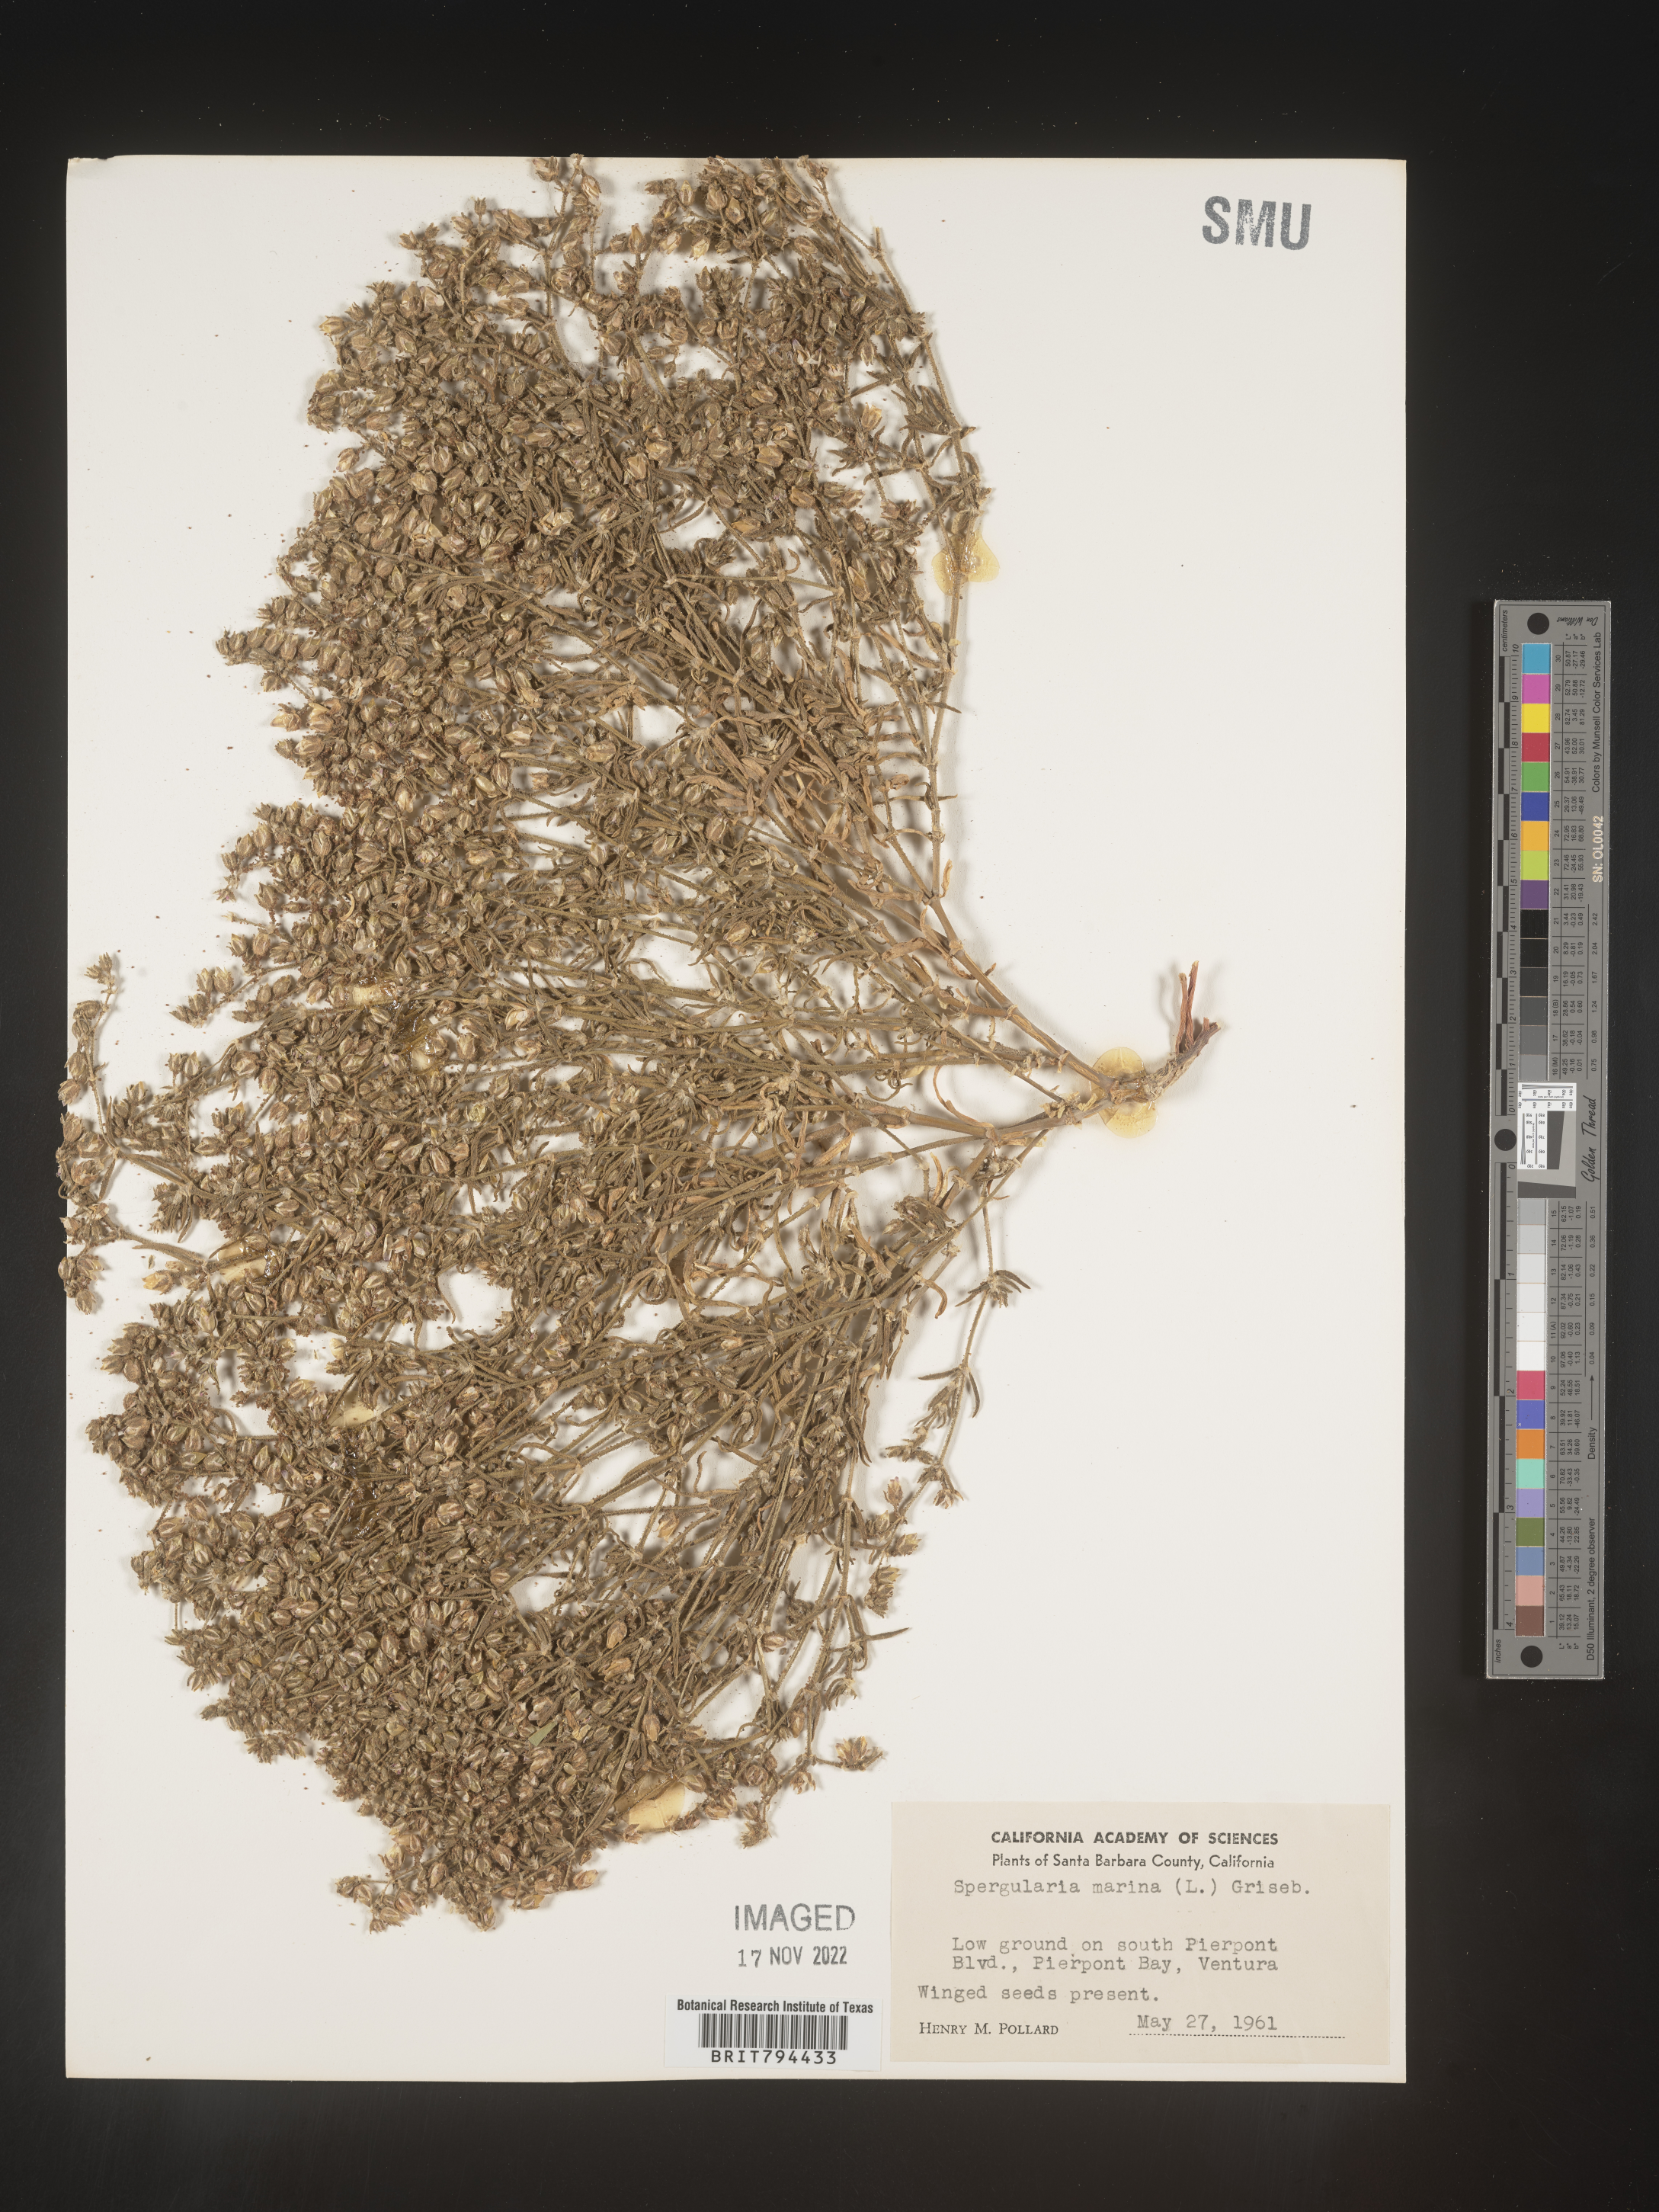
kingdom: Plantae
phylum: Tracheophyta
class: Magnoliopsida
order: Caryophyllales
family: Caryophyllaceae
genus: Spergularia
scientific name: Spergularia marina
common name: Lesser sea-spurrey
